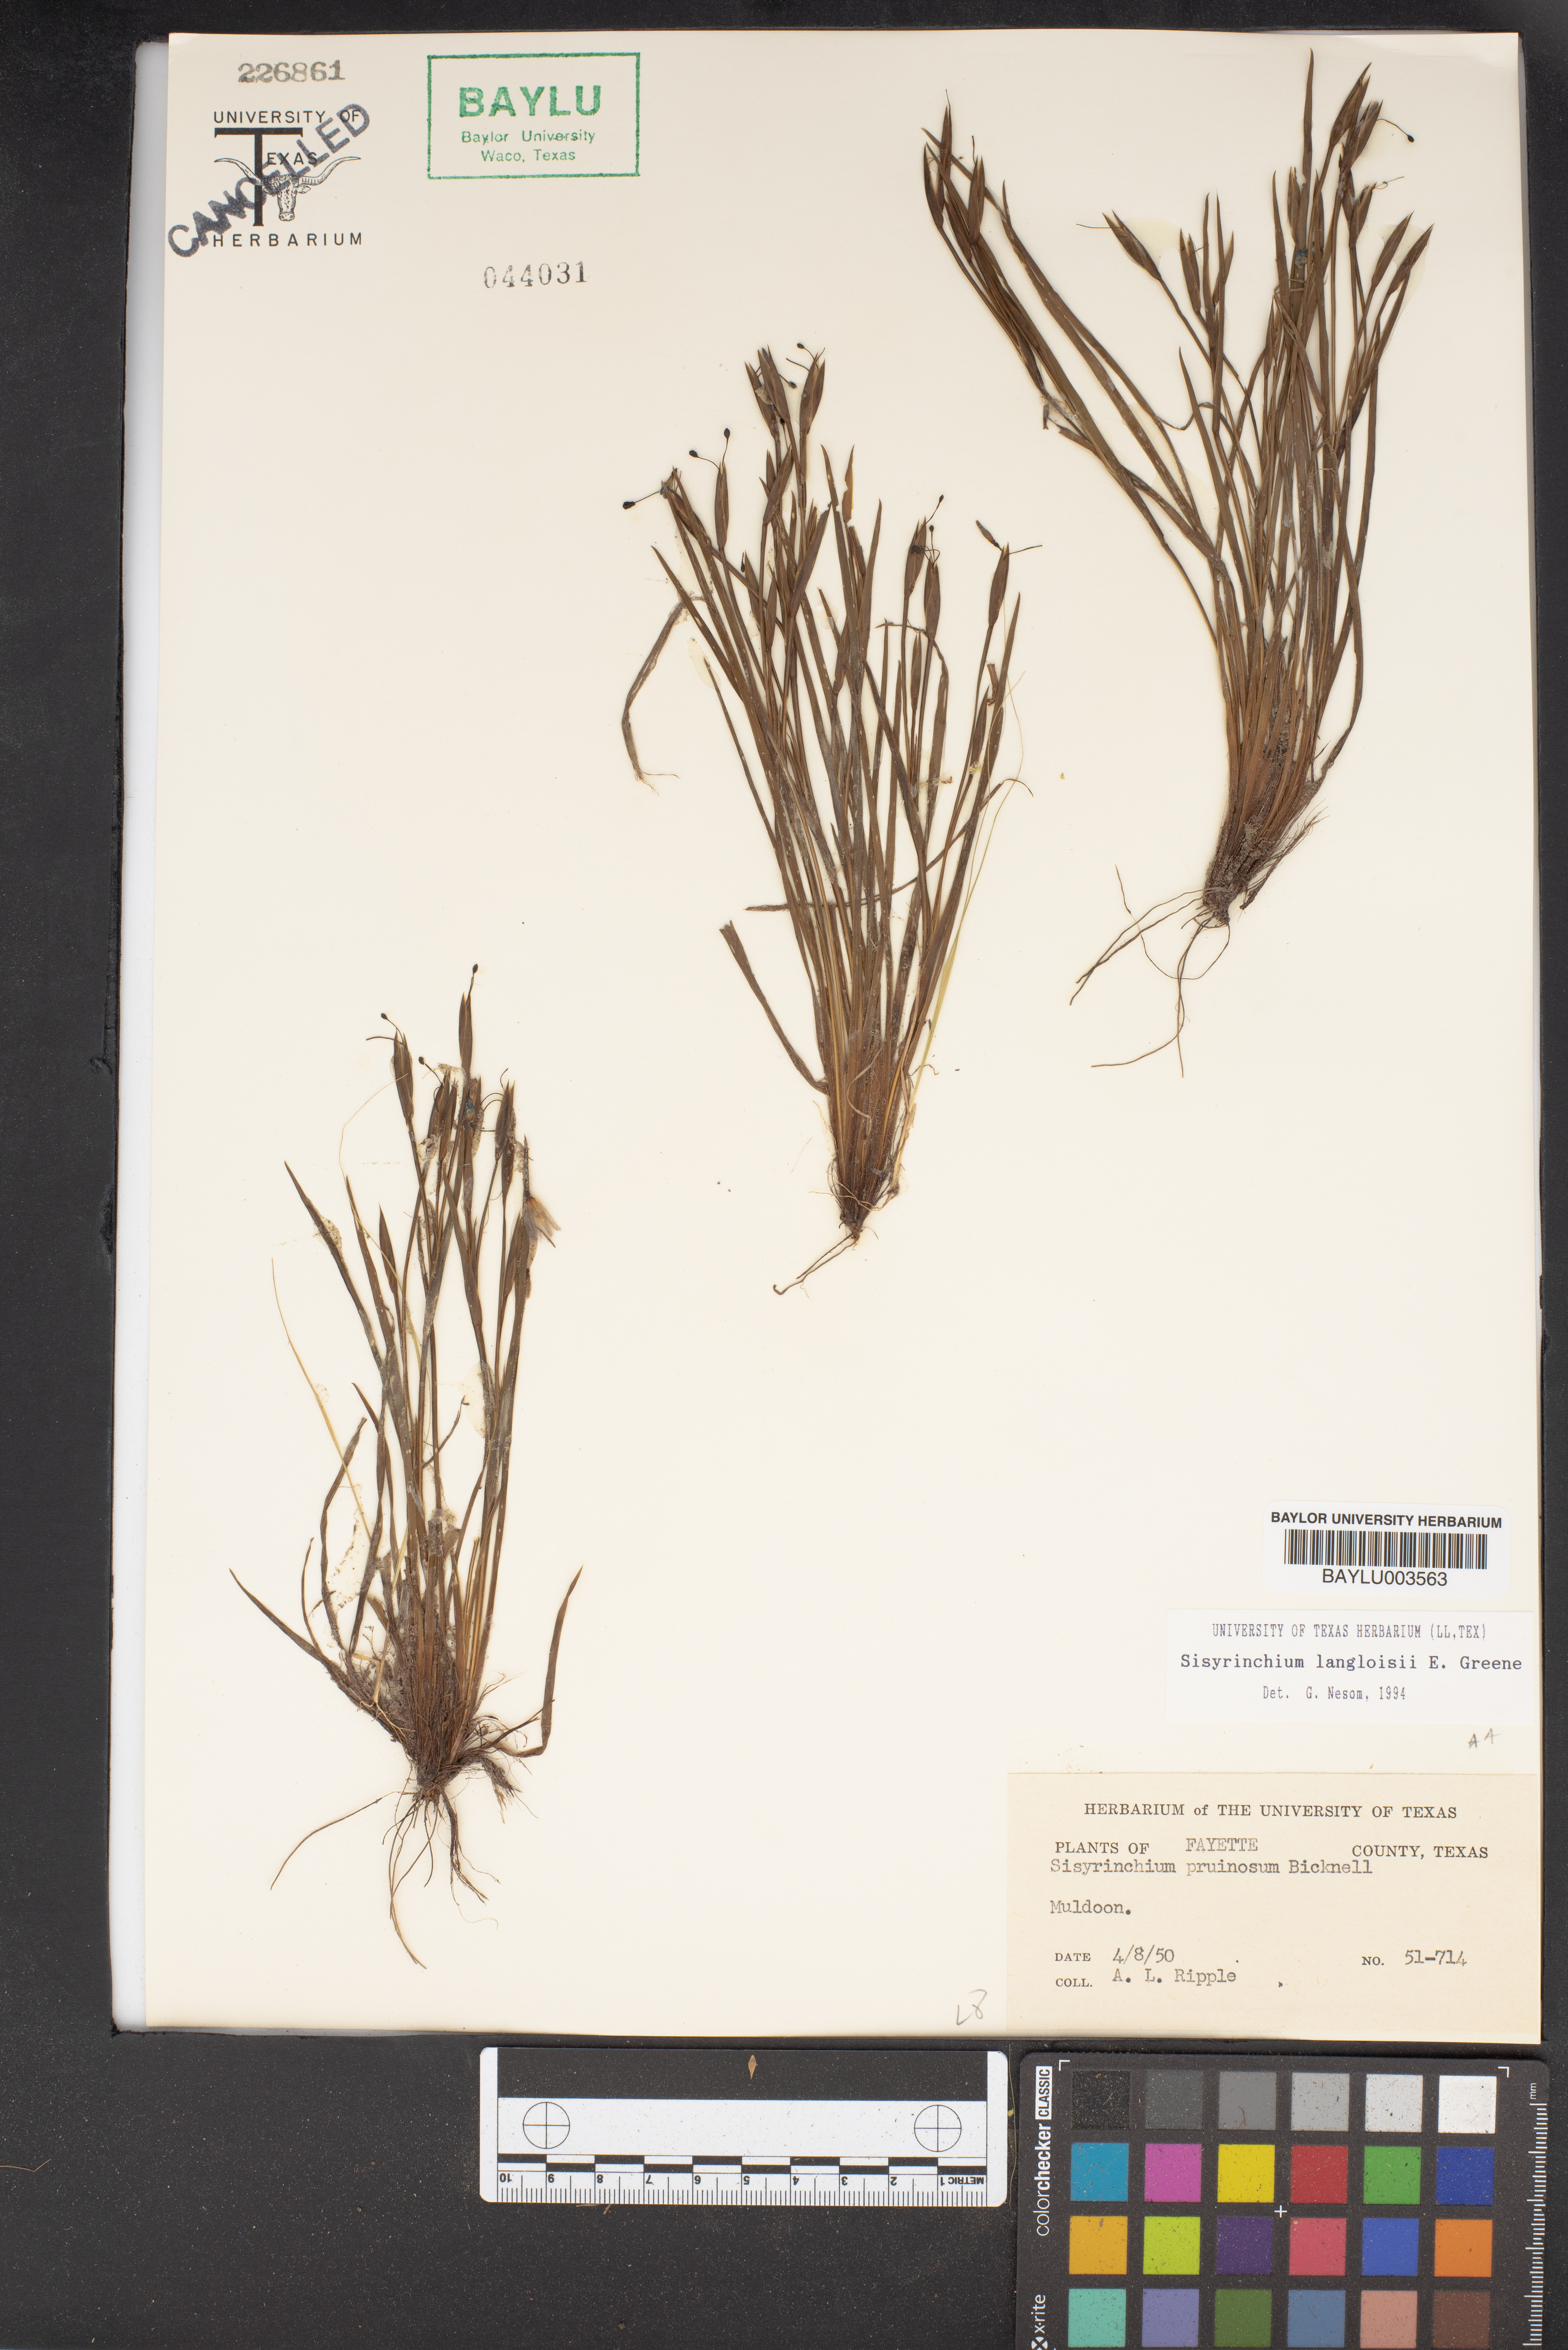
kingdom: Plantae
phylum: Tracheophyta
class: Liliopsida
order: Asparagales
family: Iridaceae
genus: Sisyrinchium
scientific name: Sisyrinchium langloisii
